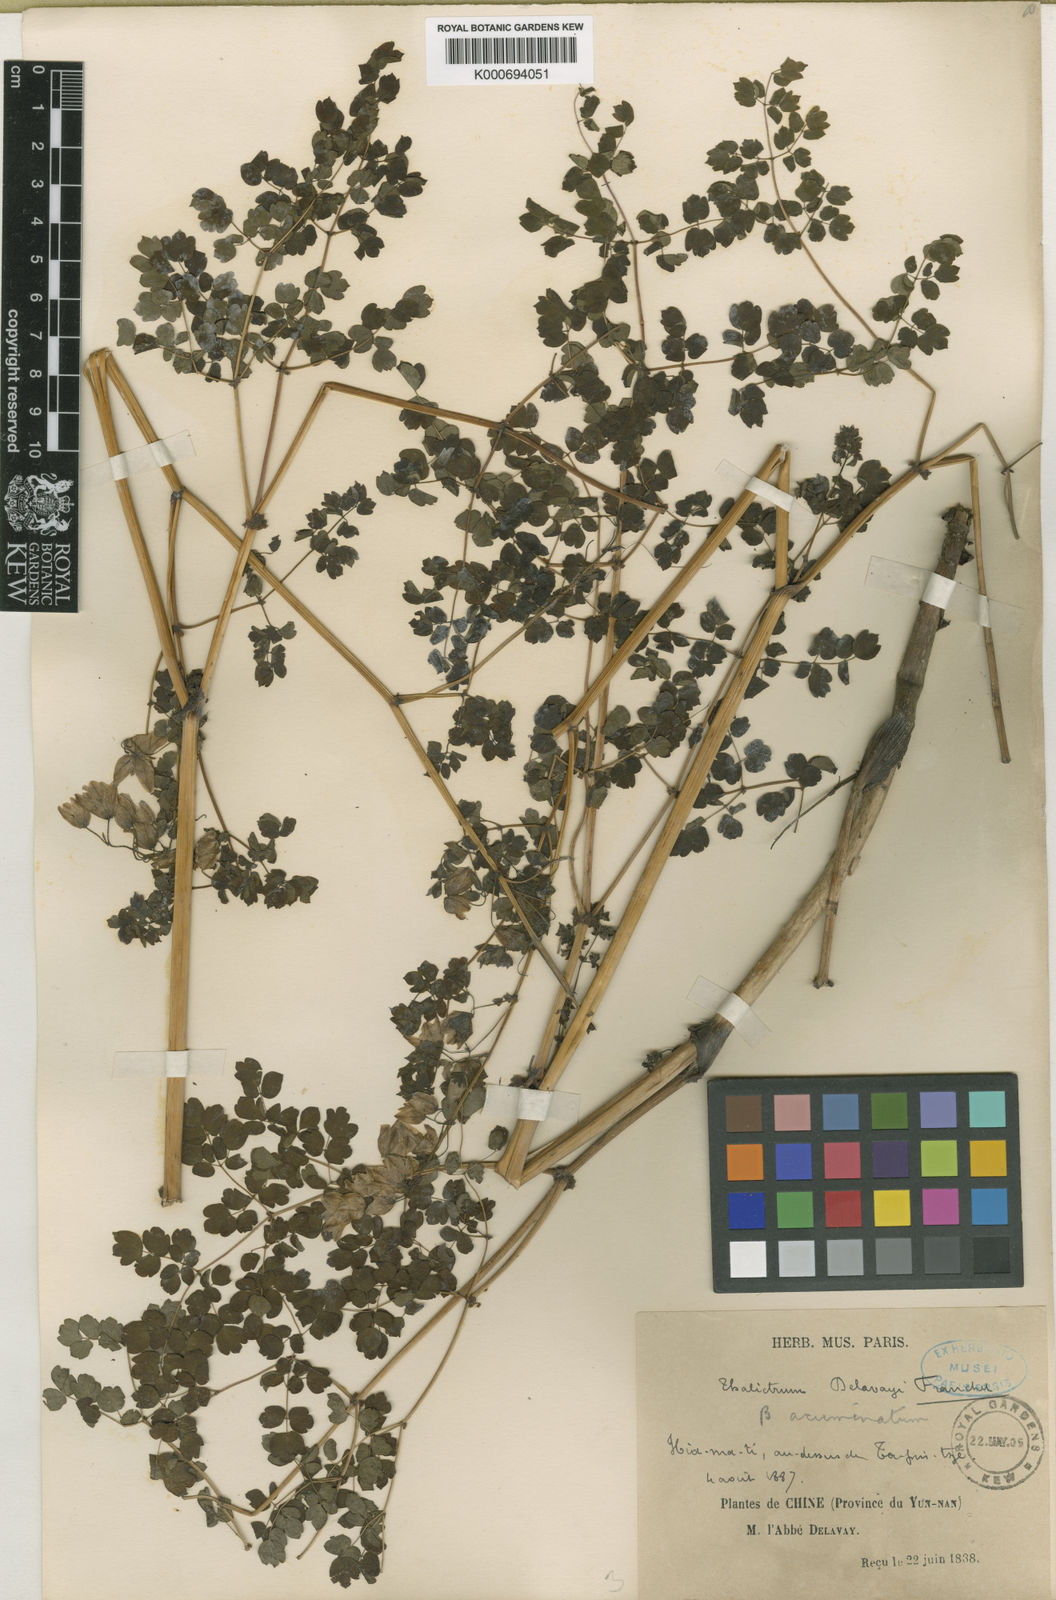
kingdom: Plantae
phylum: Tracheophyta
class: Magnoliopsida
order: Ranunculales
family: Ranunculaceae
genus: Thalictrum
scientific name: Thalictrum delavayi
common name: Chinese meadow-rue
